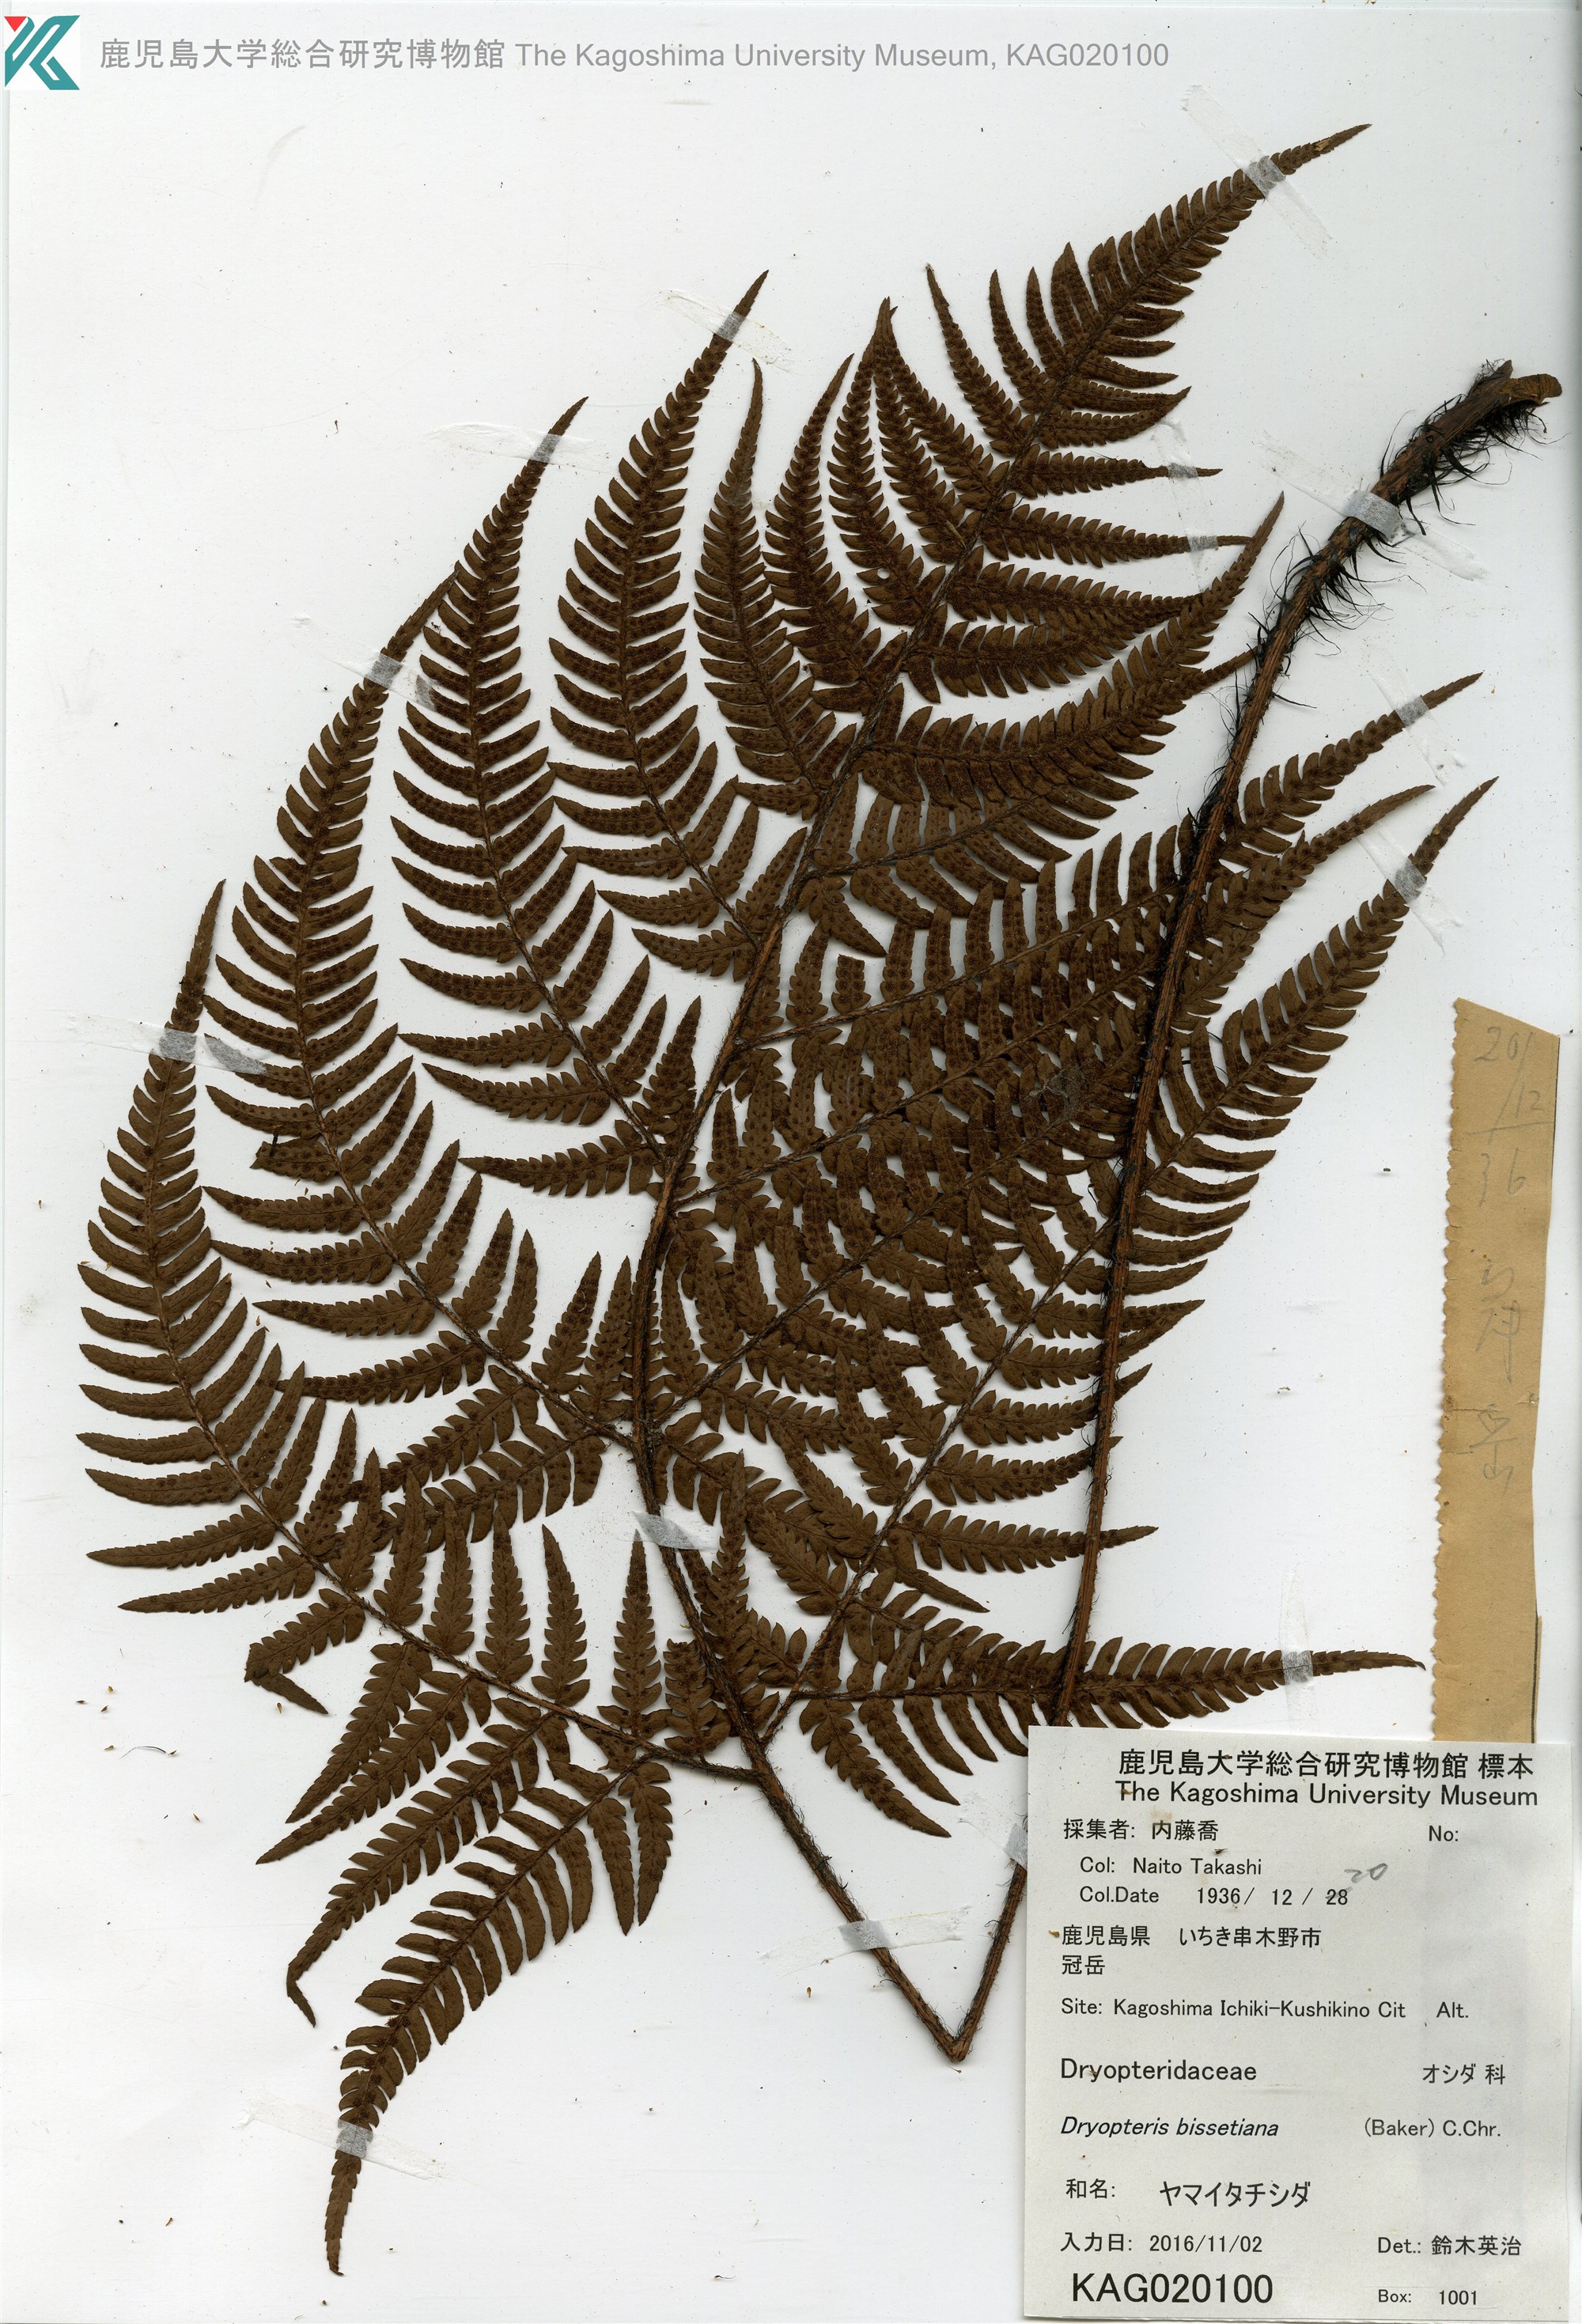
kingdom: Plantae
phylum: Tracheophyta
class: Polypodiopsida
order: Polypodiales
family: Dryopteridaceae
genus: Dryopteris
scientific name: Dryopteris bissetiana
